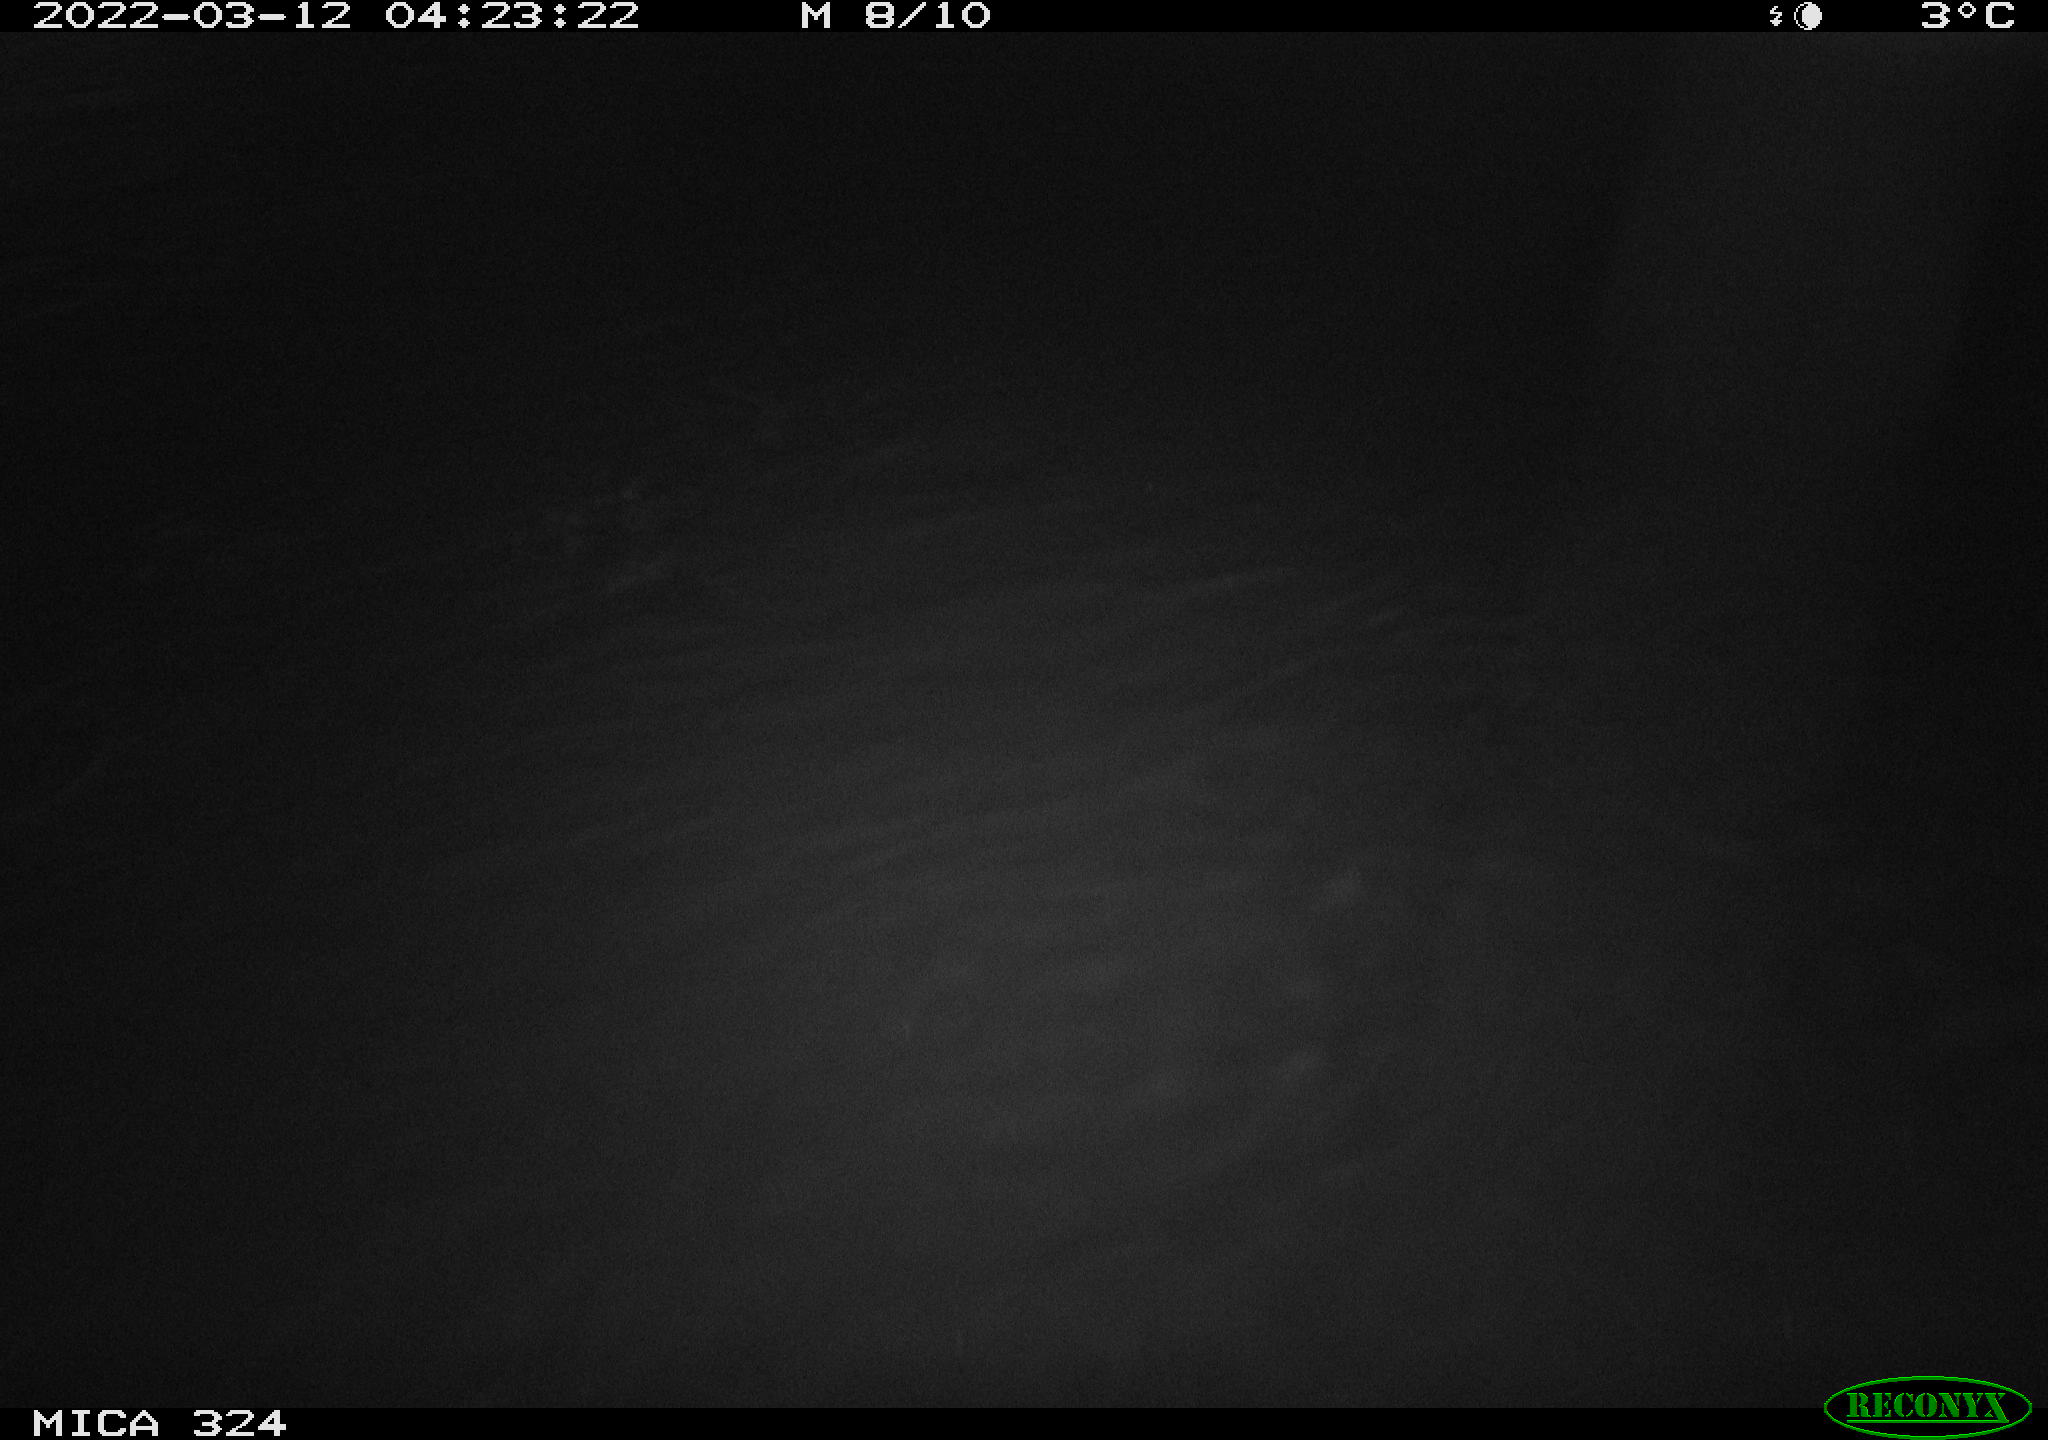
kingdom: Animalia
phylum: Chordata
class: Mammalia
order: Rodentia
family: Cricetidae
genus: Ondatra
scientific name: Ondatra zibethicus
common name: Muskrat
